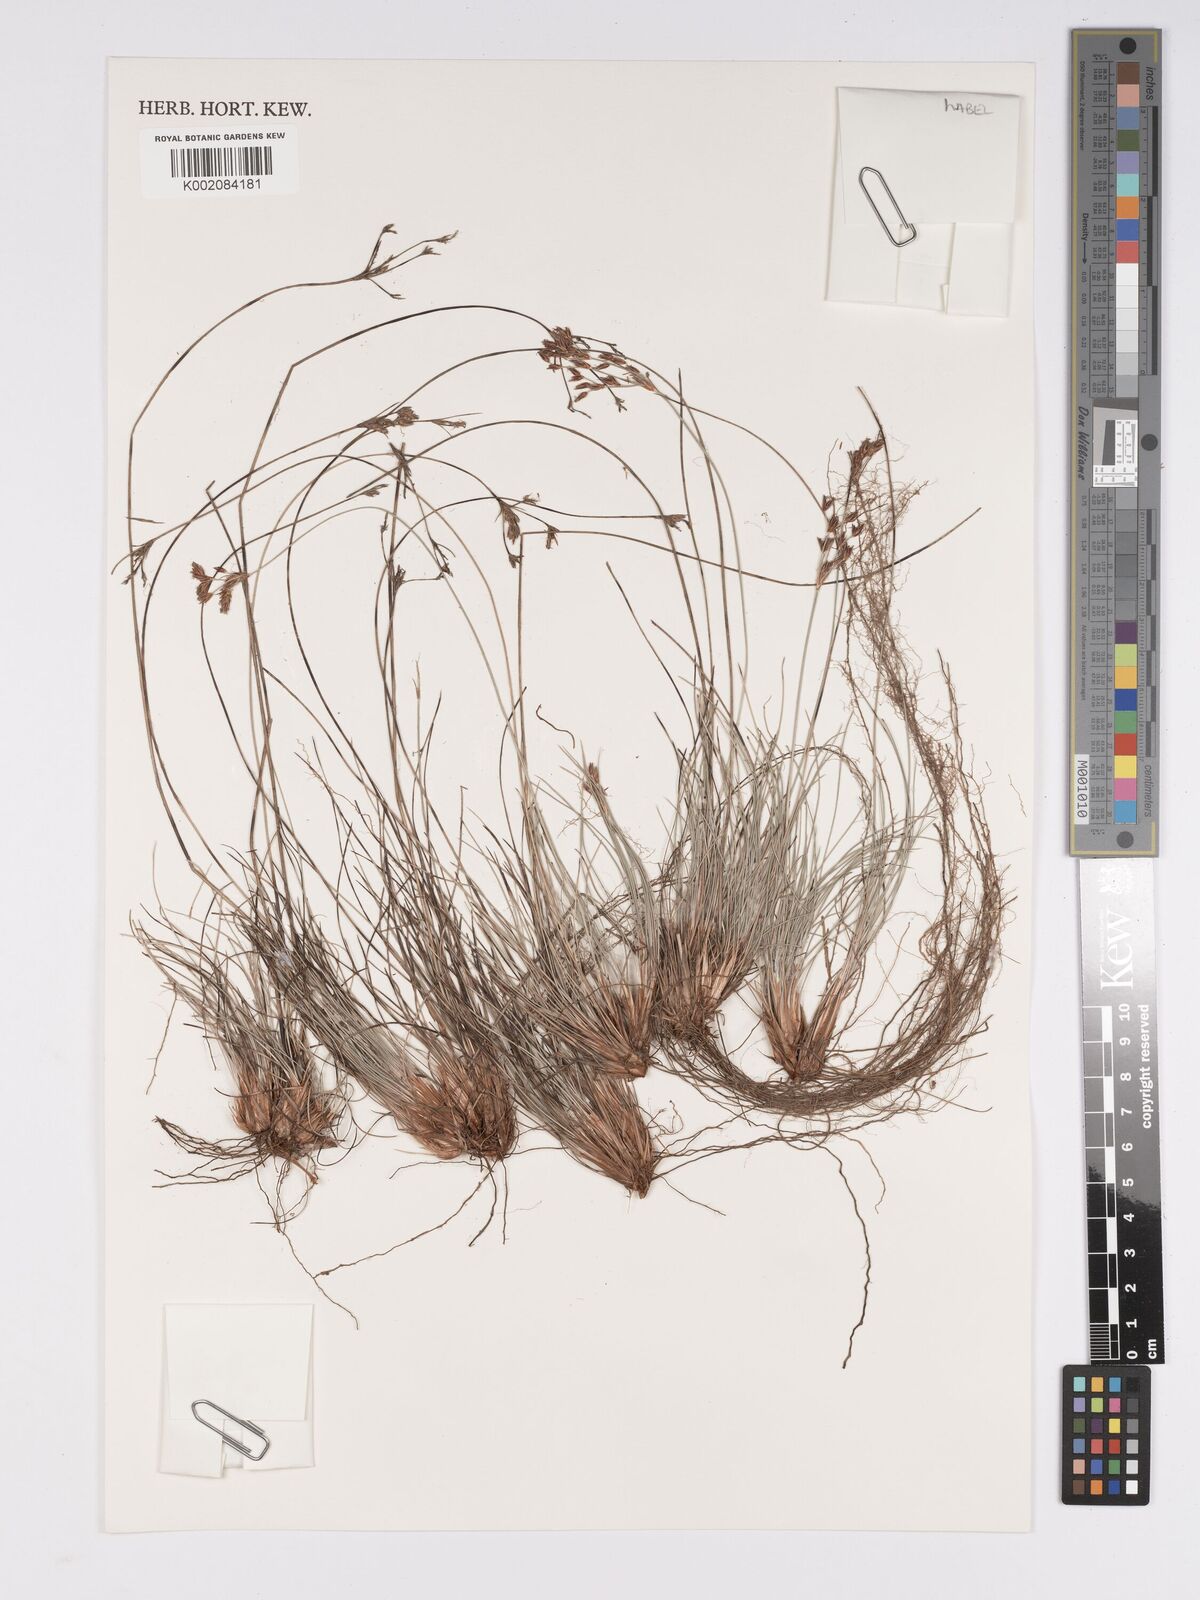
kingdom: Plantae
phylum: Tracheophyta
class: Liliopsida
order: Poales
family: Cyperaceae
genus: Bulbostylis
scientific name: Bulbostylis
